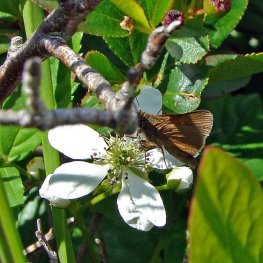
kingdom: Animalia
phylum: Arthropoda
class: Insecta
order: Lepidoptera
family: Hesperiidae
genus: Euphyes
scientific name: Euphyes vestris
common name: Dun Skipper
